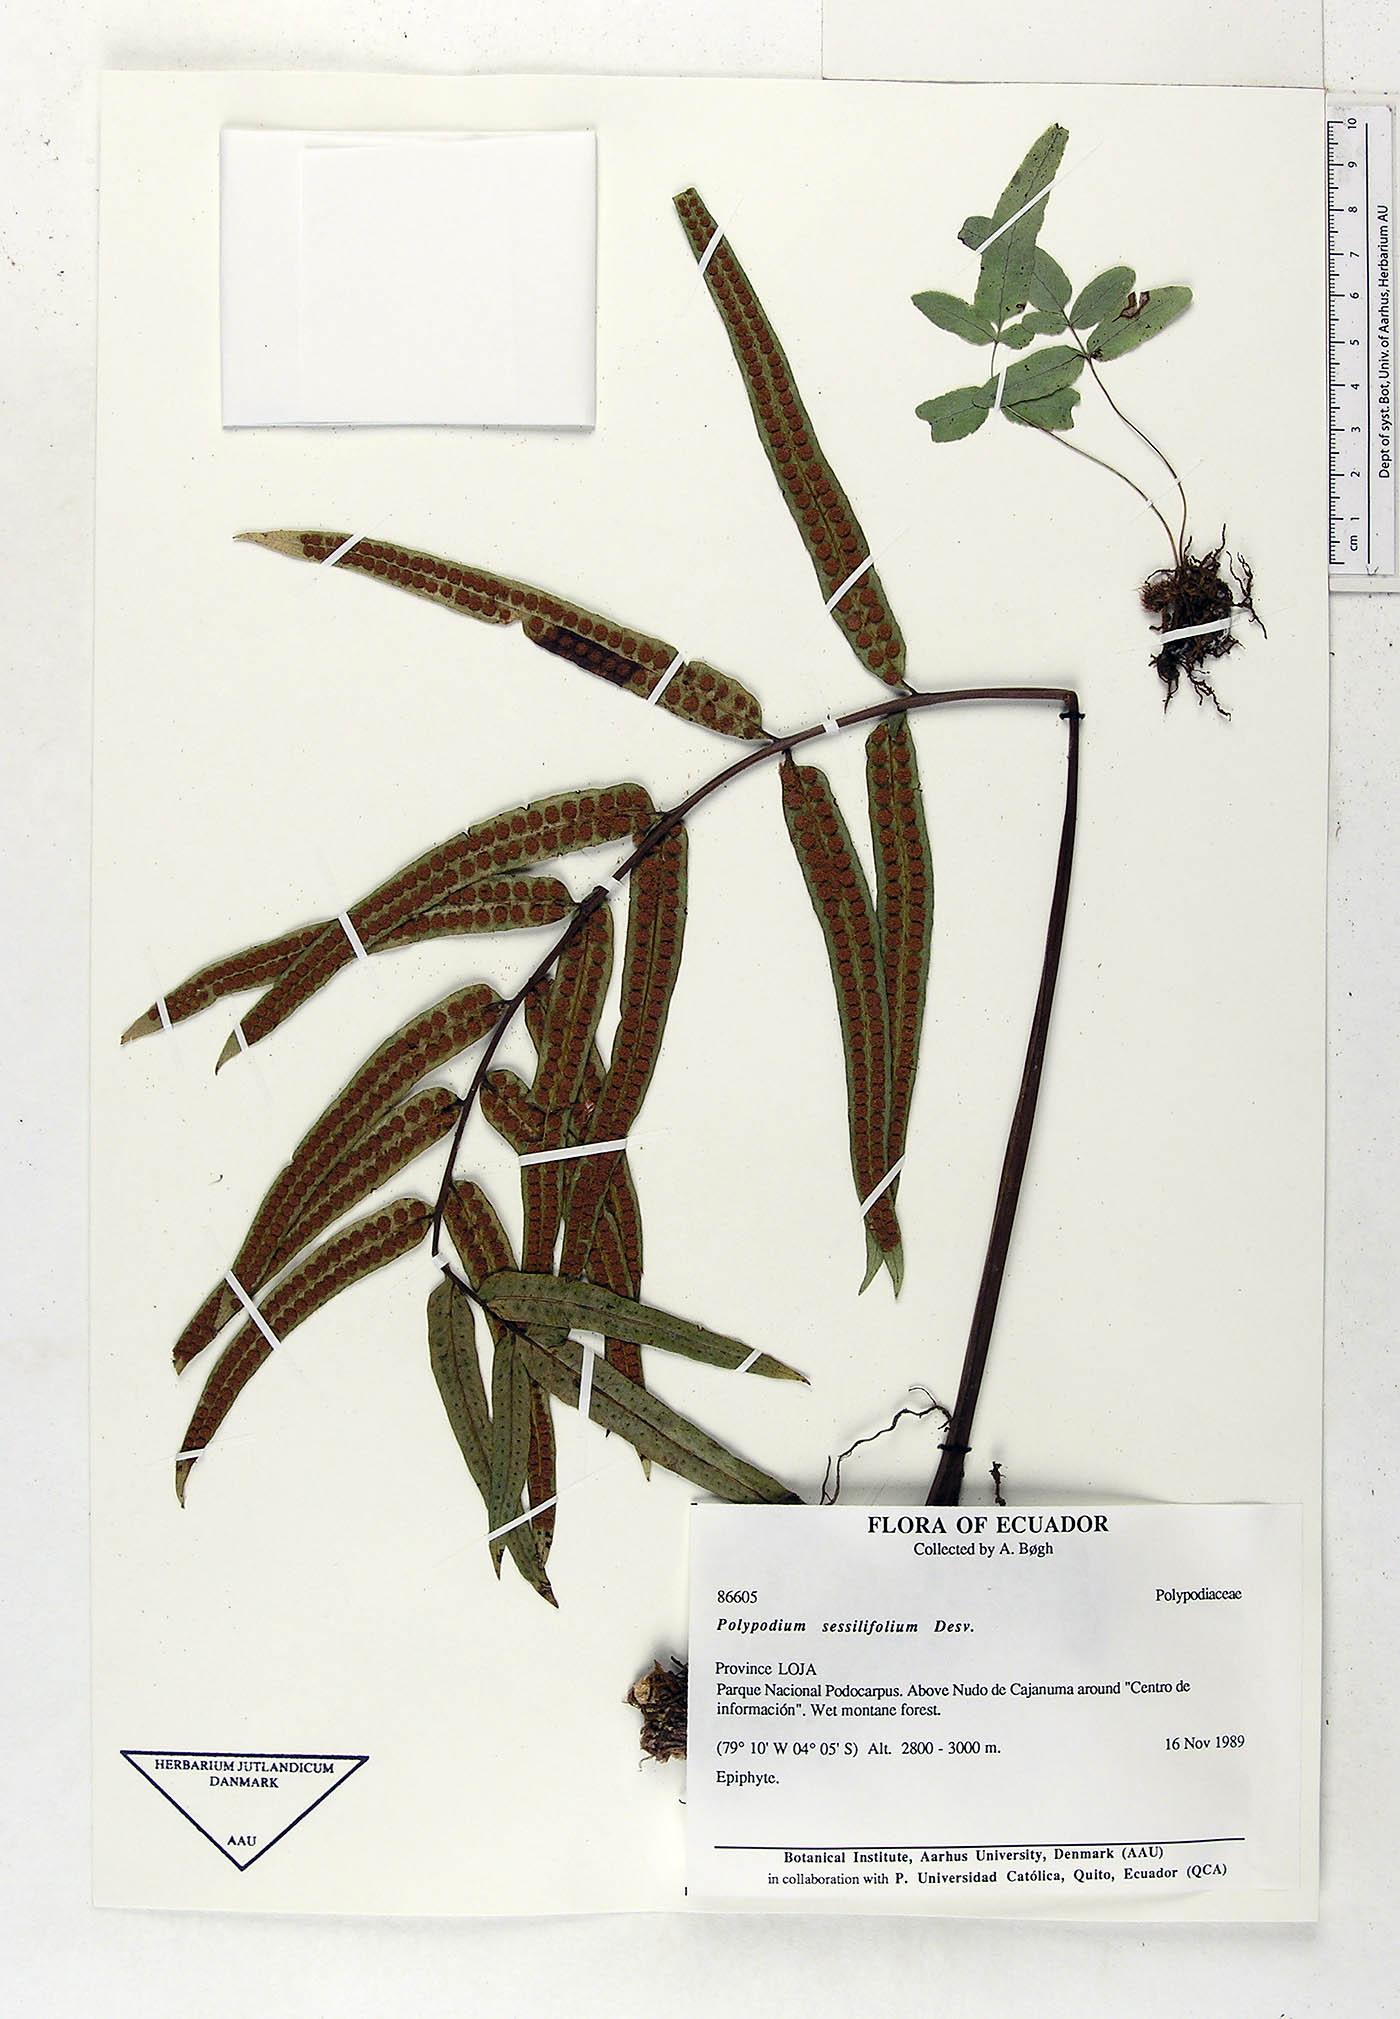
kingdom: Plantae
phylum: Tracheophyta
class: Polypodiopsida
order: Polypodiales
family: Polypodiaceae
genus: Serpocaulon
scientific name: Serpocaulon sessilifolium
